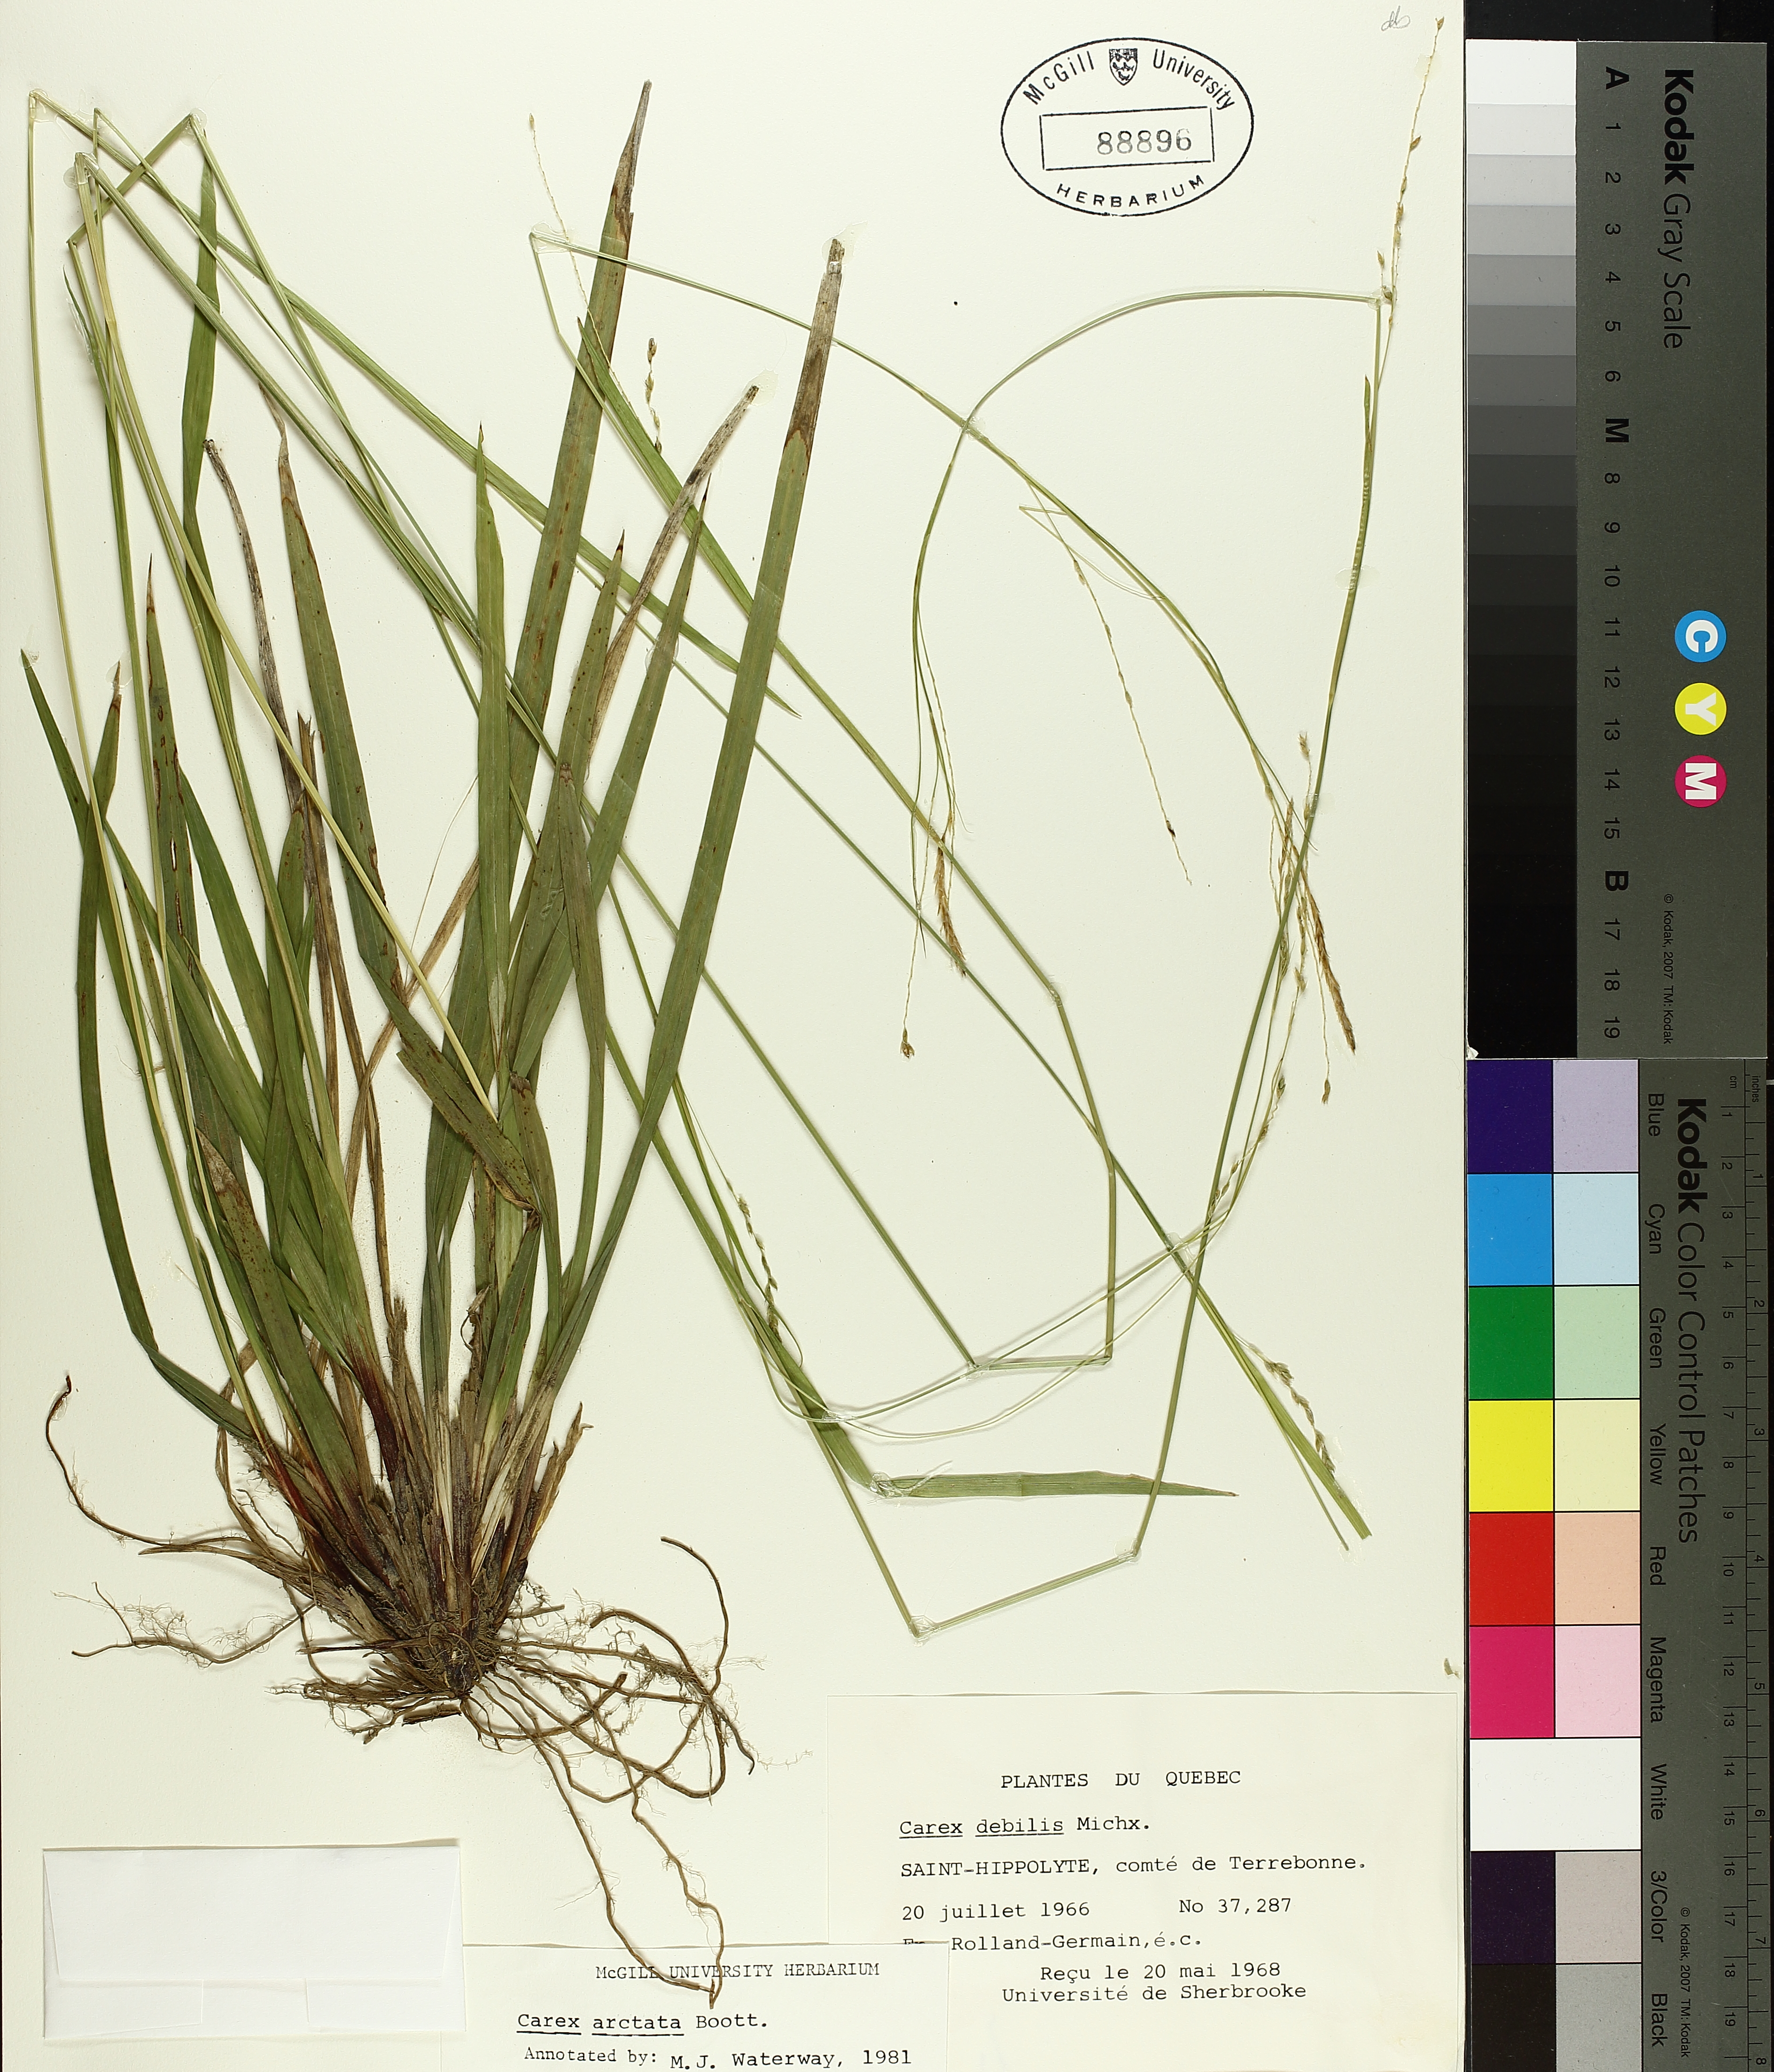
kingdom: Plantae
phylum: Tracheophyta
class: Liliopsida
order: Poales
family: Cyperaceae
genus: Carex
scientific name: Carex arctata
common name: Black sedge
